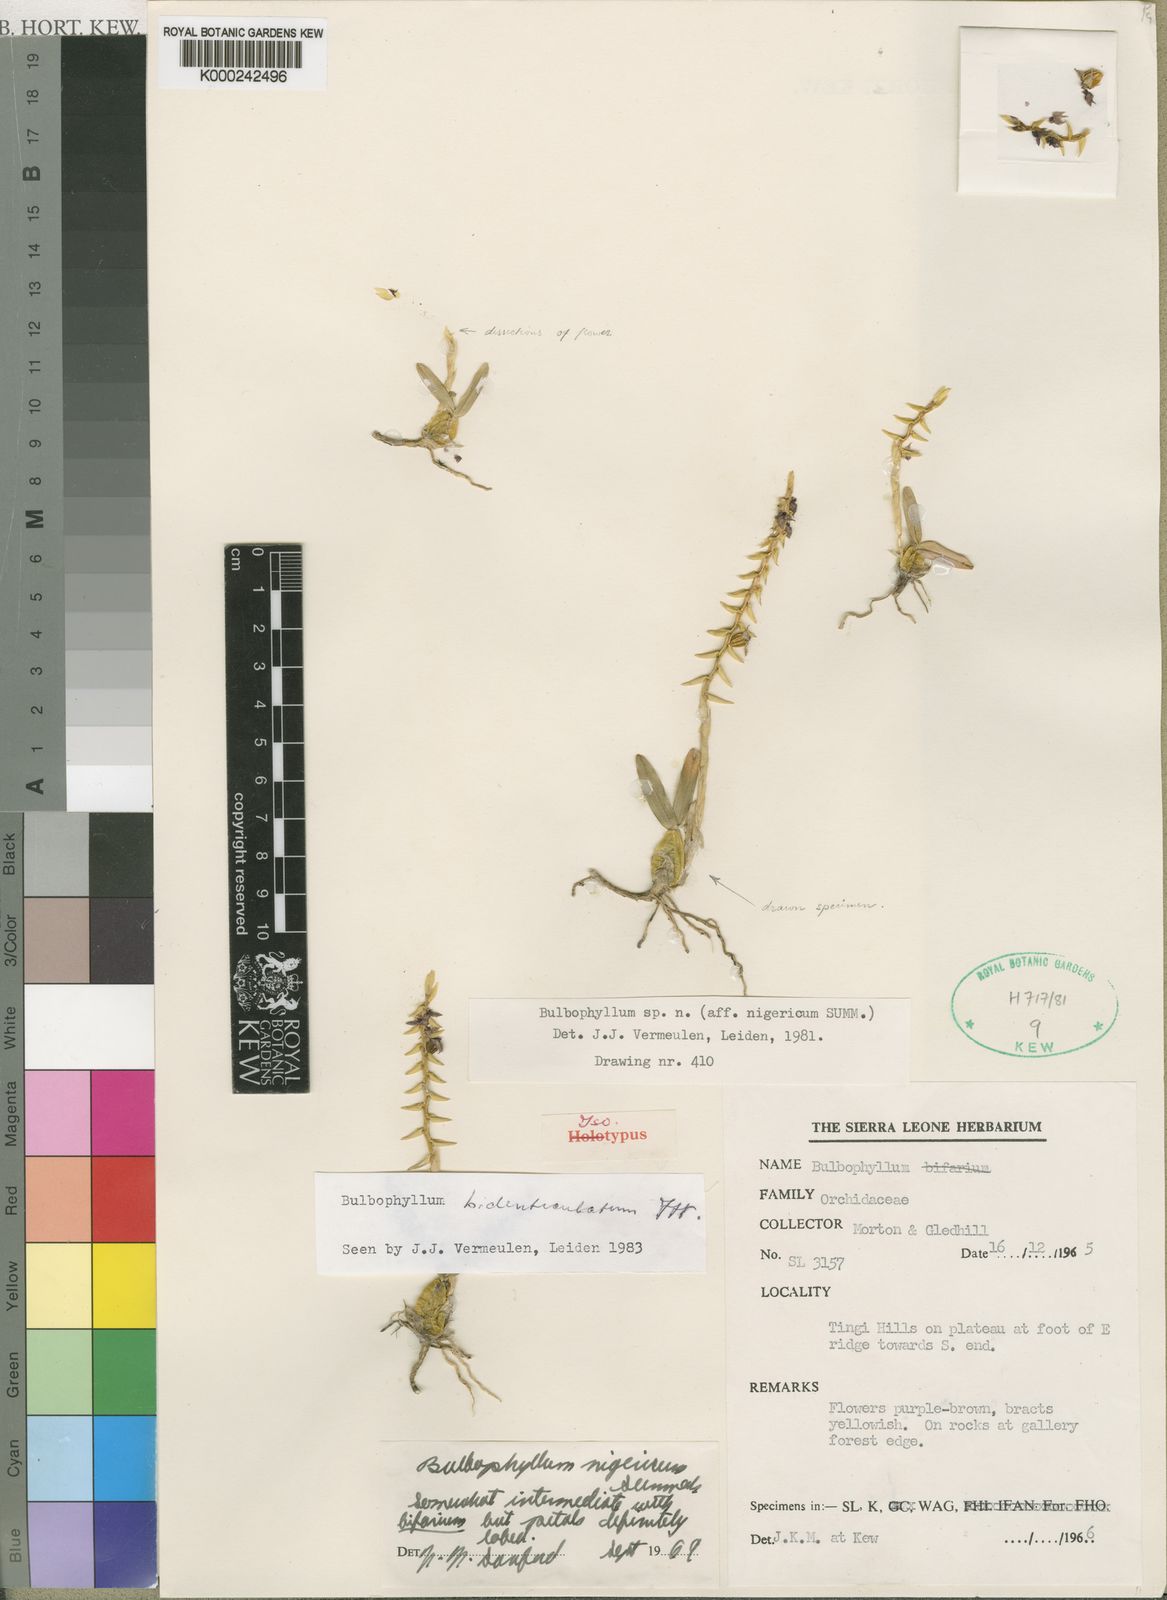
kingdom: Plantae
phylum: Tracheophyta
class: Liliopsida
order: Asparagales
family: Orchidaceae
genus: Bulbophyllum
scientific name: Bulbophyllum bidenticulatum
